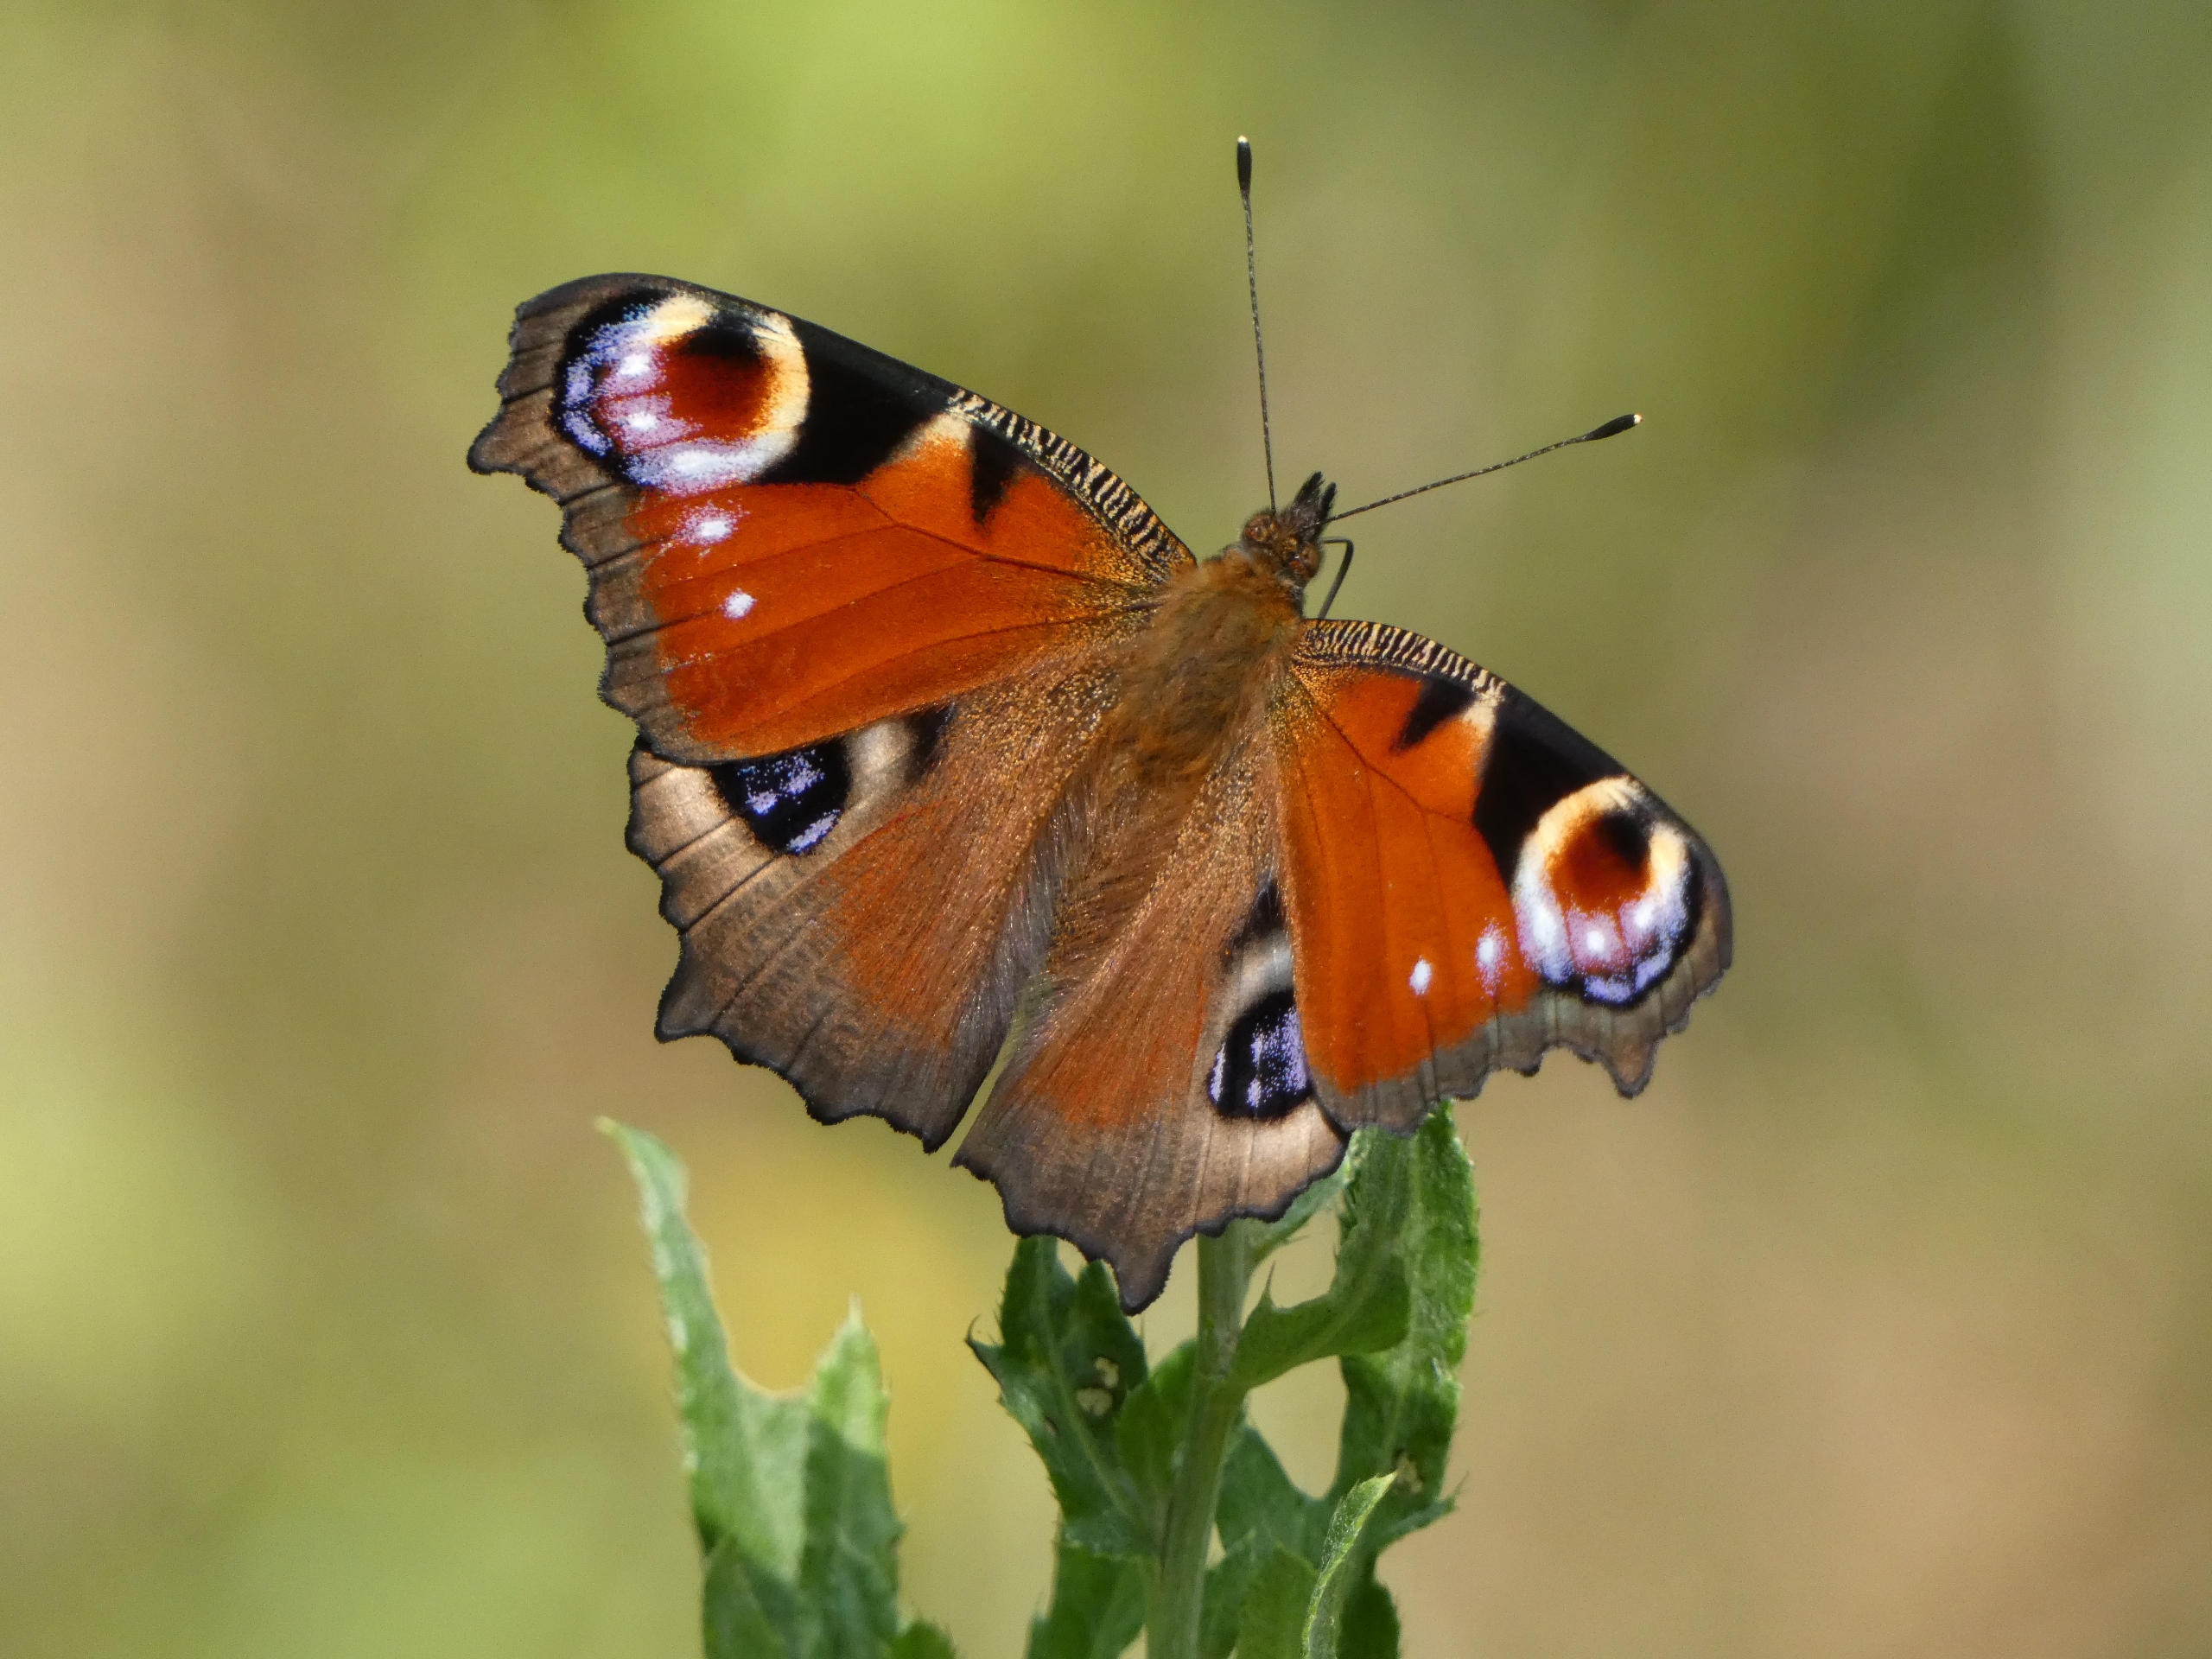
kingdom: Animalia
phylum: Arthropoda
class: Insecta
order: Lepidoptera
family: Nymphalidae
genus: Aglais
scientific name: Aglais io
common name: Dagpåfugleøje
